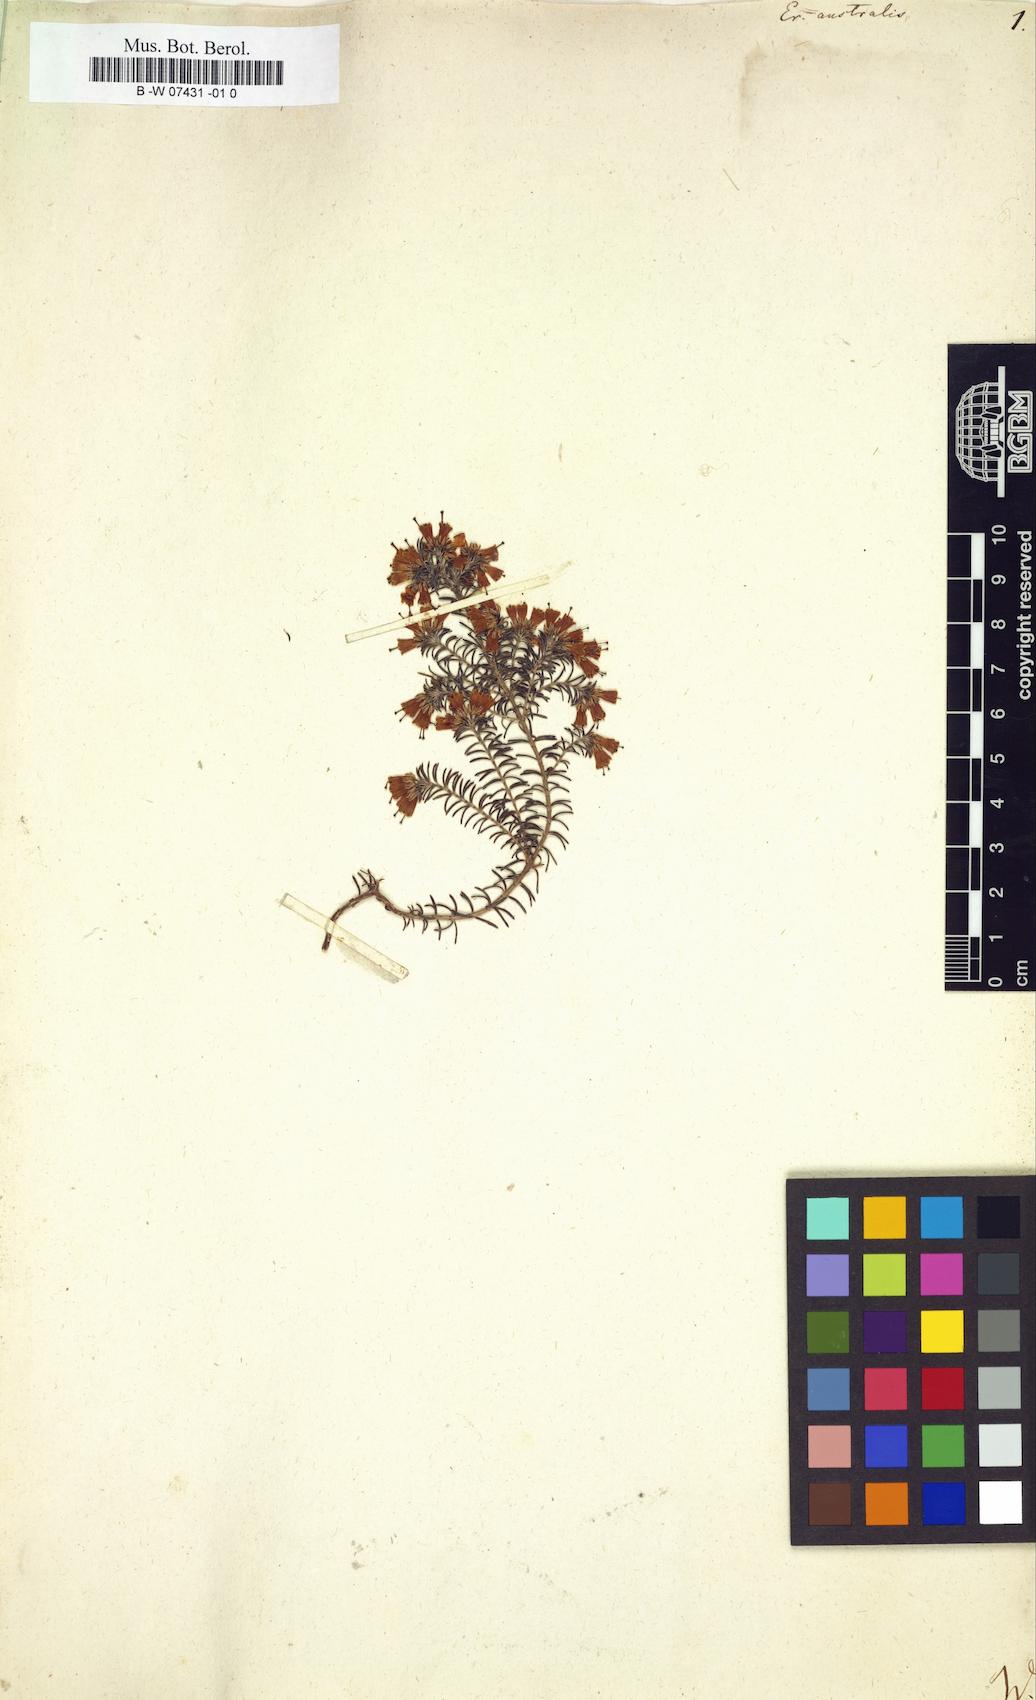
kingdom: Plantae
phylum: Tracheophyta
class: Magnoliopsida
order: Ericales
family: Ericaceae
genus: Erica
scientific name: Erica australis
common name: Spanish heath
